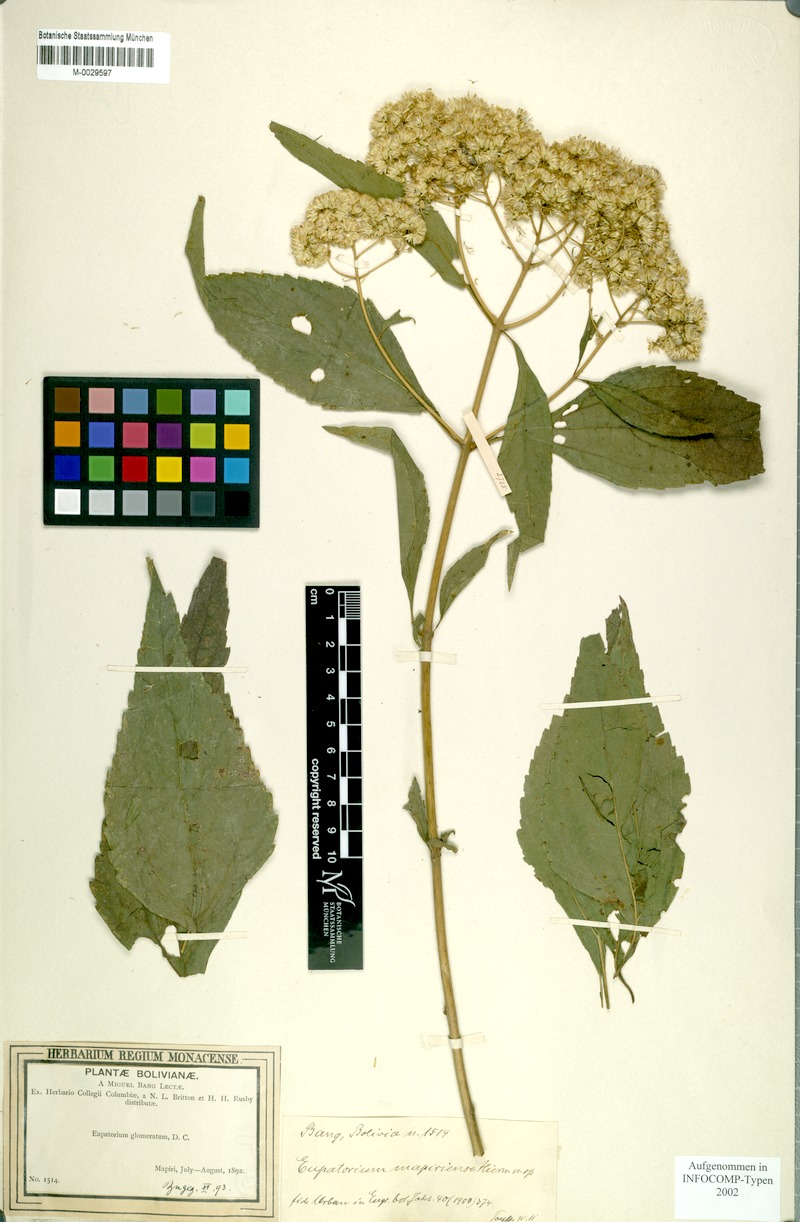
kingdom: Plantae
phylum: Tracheophyta
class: Magnoliopsida
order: Asterales
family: Asteraceae
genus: Austroeupatorium
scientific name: Austroeupatorium decemflorum
